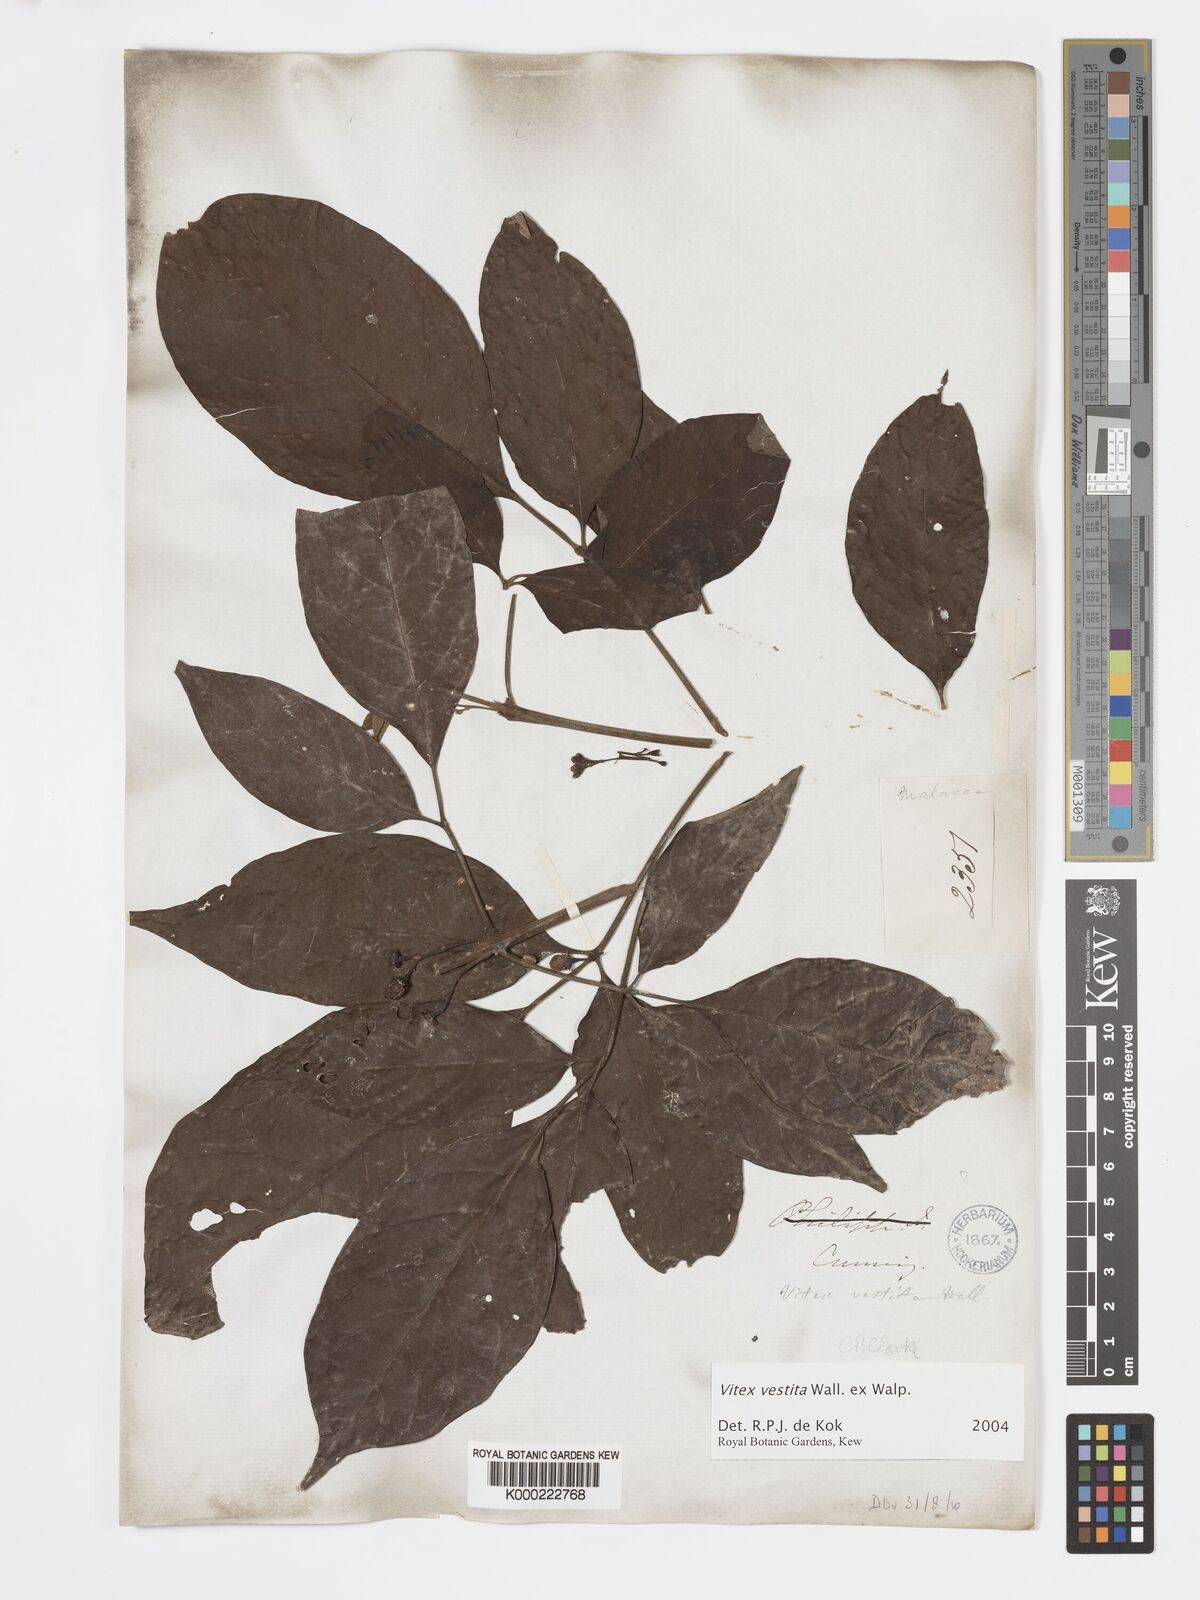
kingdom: Plantae
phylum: Tracheophyta
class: Magnoliopsida
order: Lamiales
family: Lamiaceae
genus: Vitex
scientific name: Vitex vestita
